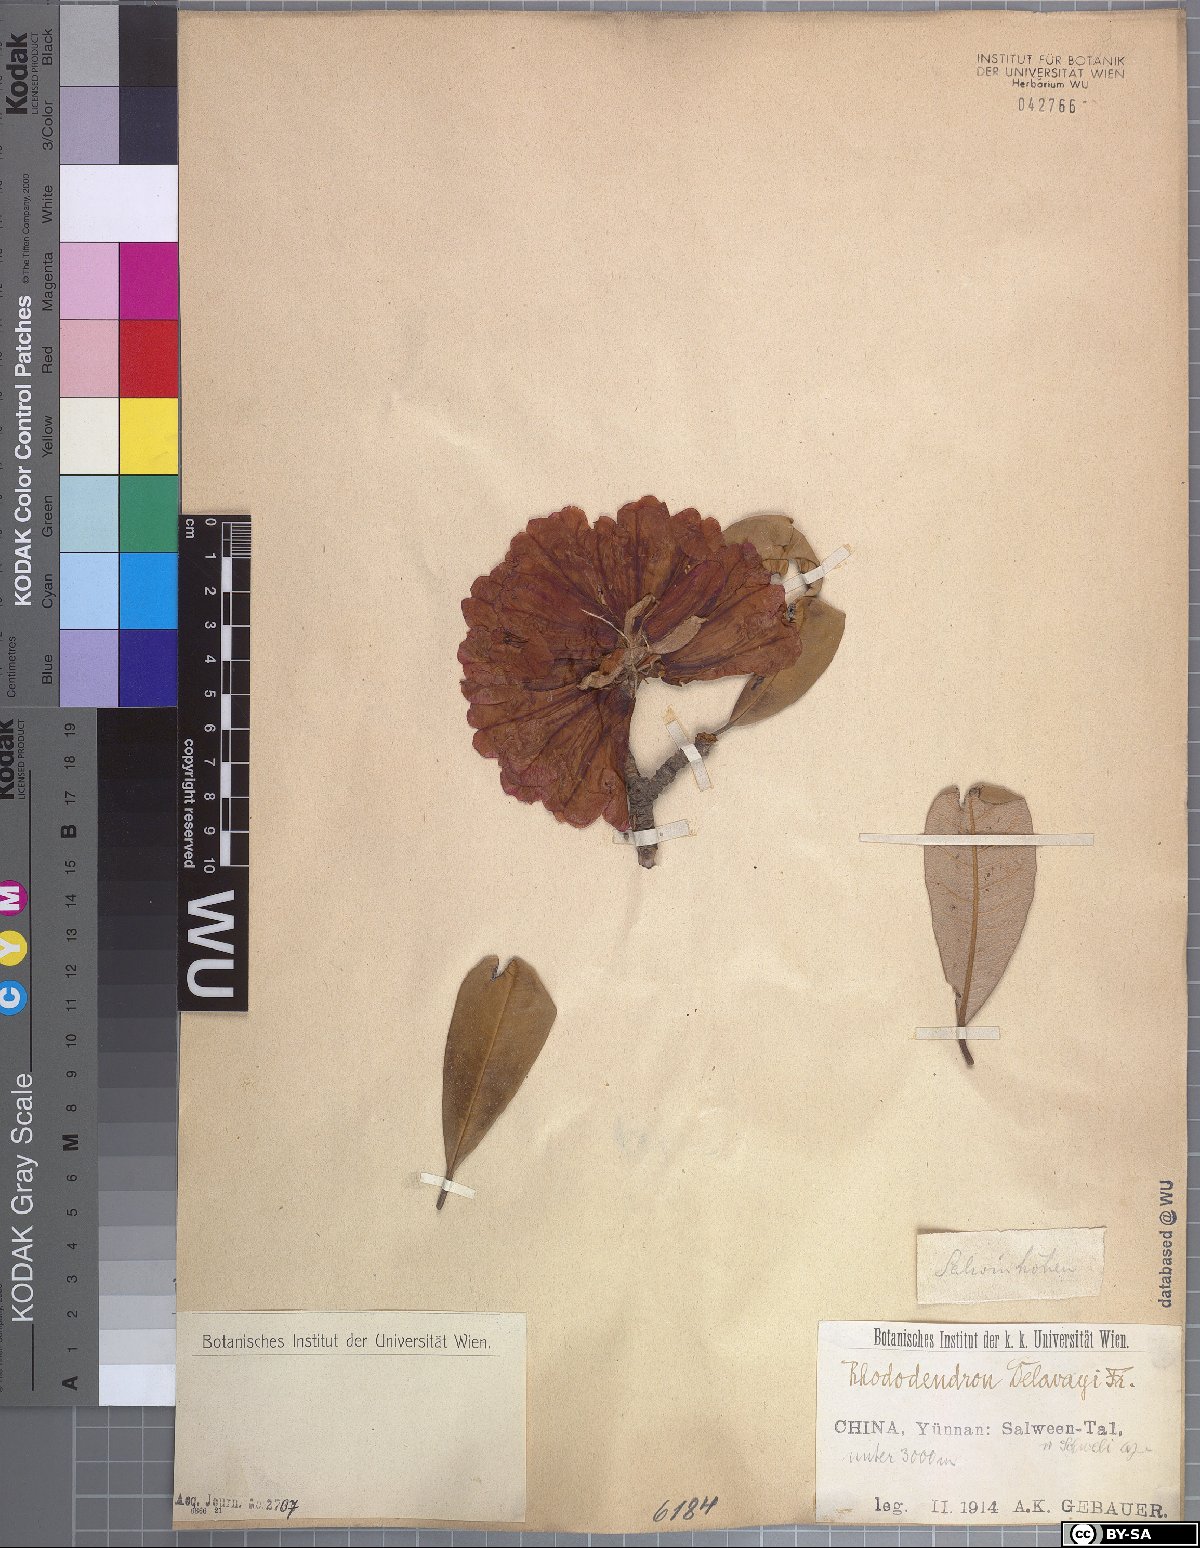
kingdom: Plantae
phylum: Tracheophyta
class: Magnoliopsida
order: Ericales
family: Ericaceae
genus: Rhododendron
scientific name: Rhododendron delavayi
